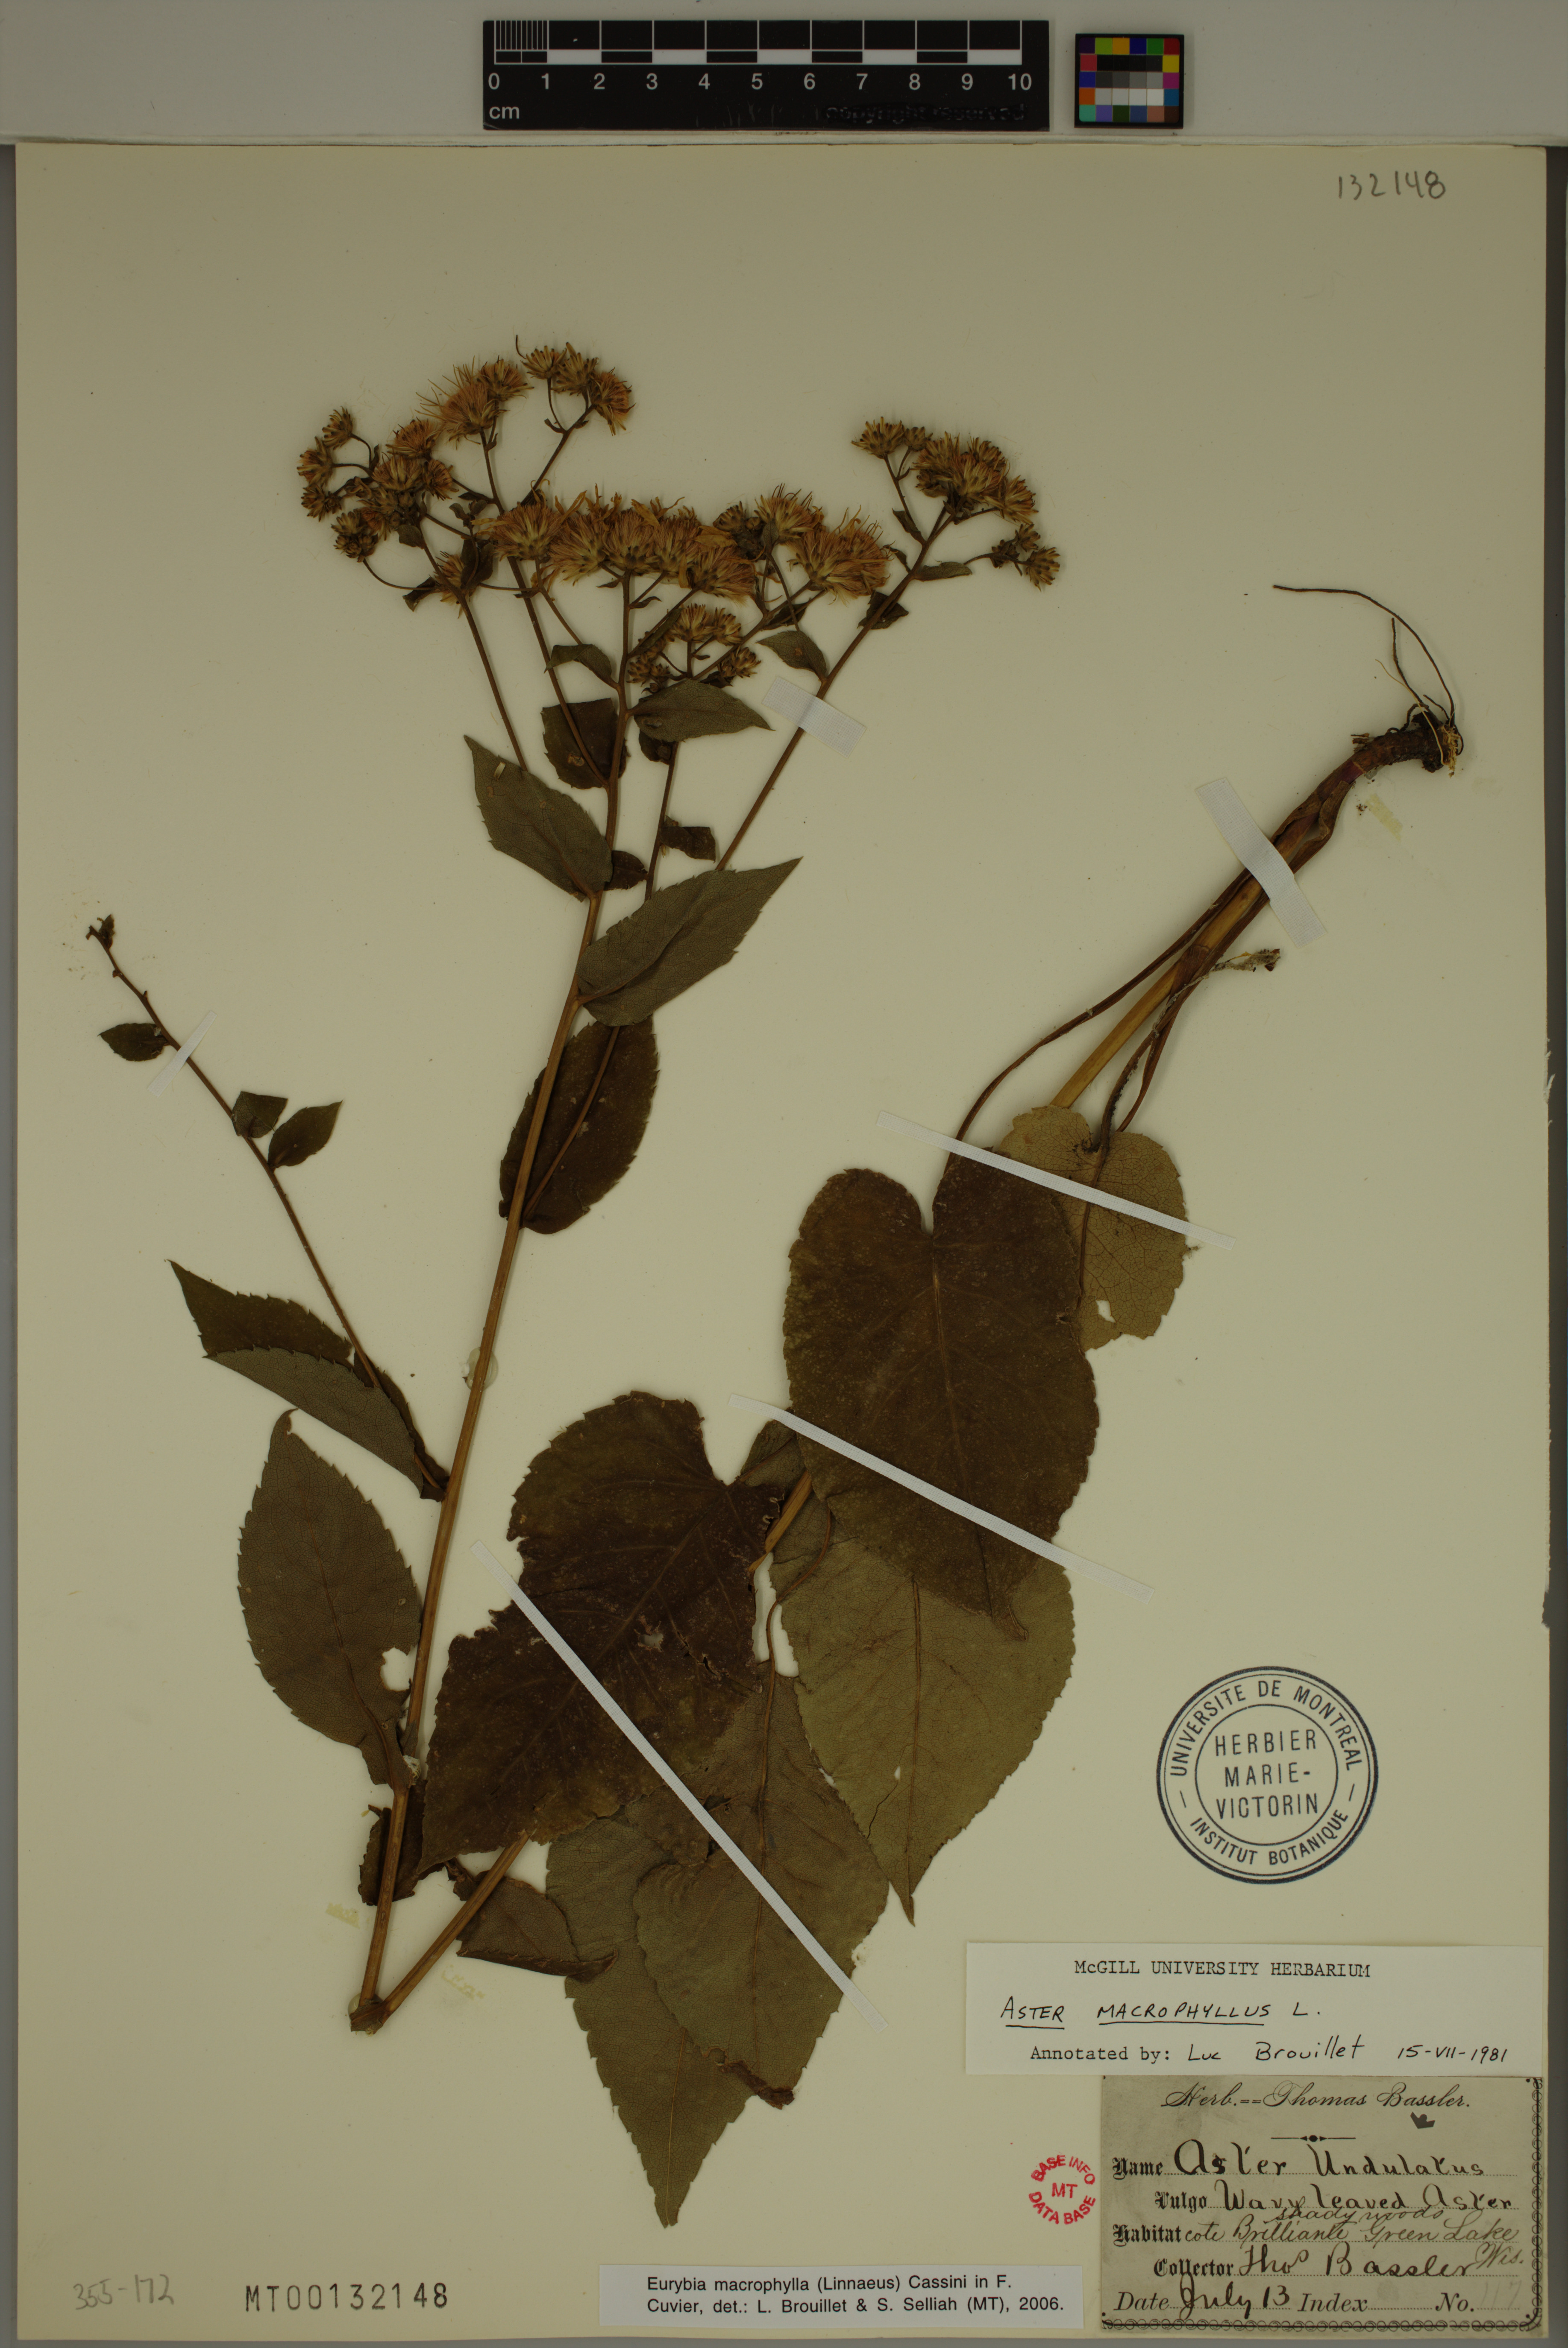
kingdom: Plantae
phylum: Tracheophyta
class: Magnoliopsida
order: Asterales
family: Asteraceae
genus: Eurybia
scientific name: Eurybia macrophylla
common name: Big-leaved aster
